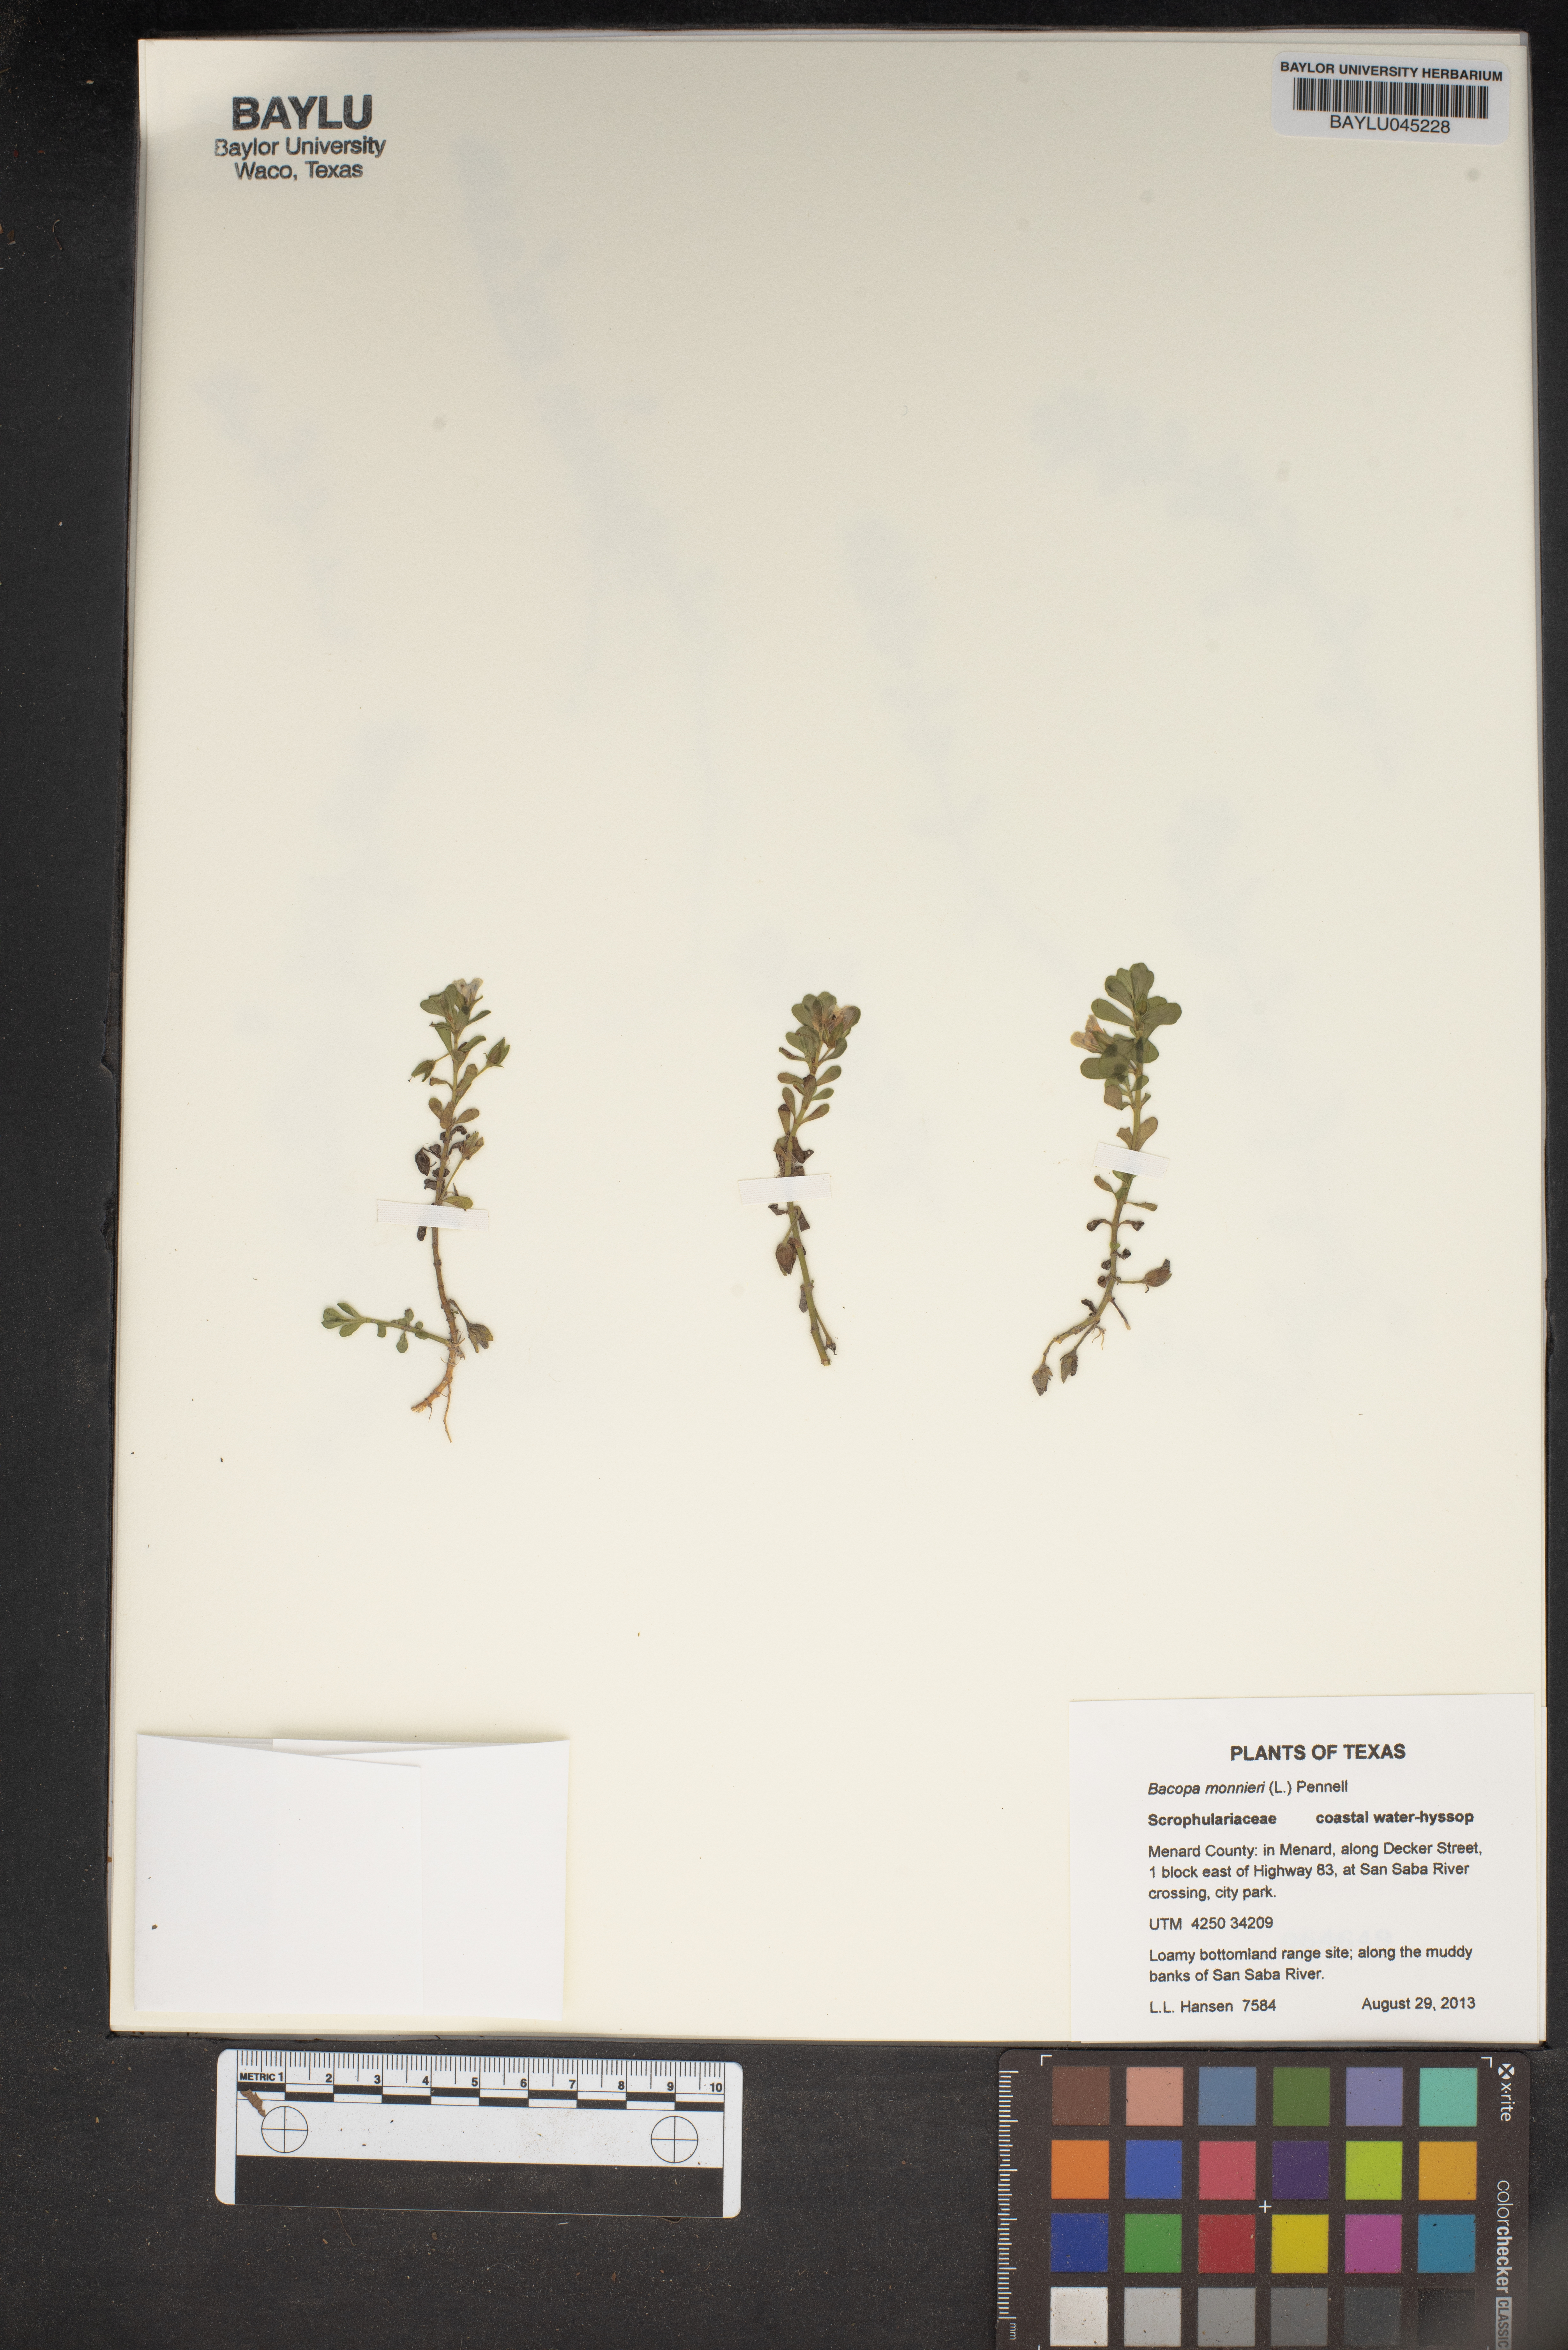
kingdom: Plantae
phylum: Tracheophyta
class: Magnoliopsida
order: Lamiales
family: Plantaginaceae
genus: Bacopa
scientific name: Bacopa monnieri
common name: Indian-pennywort
